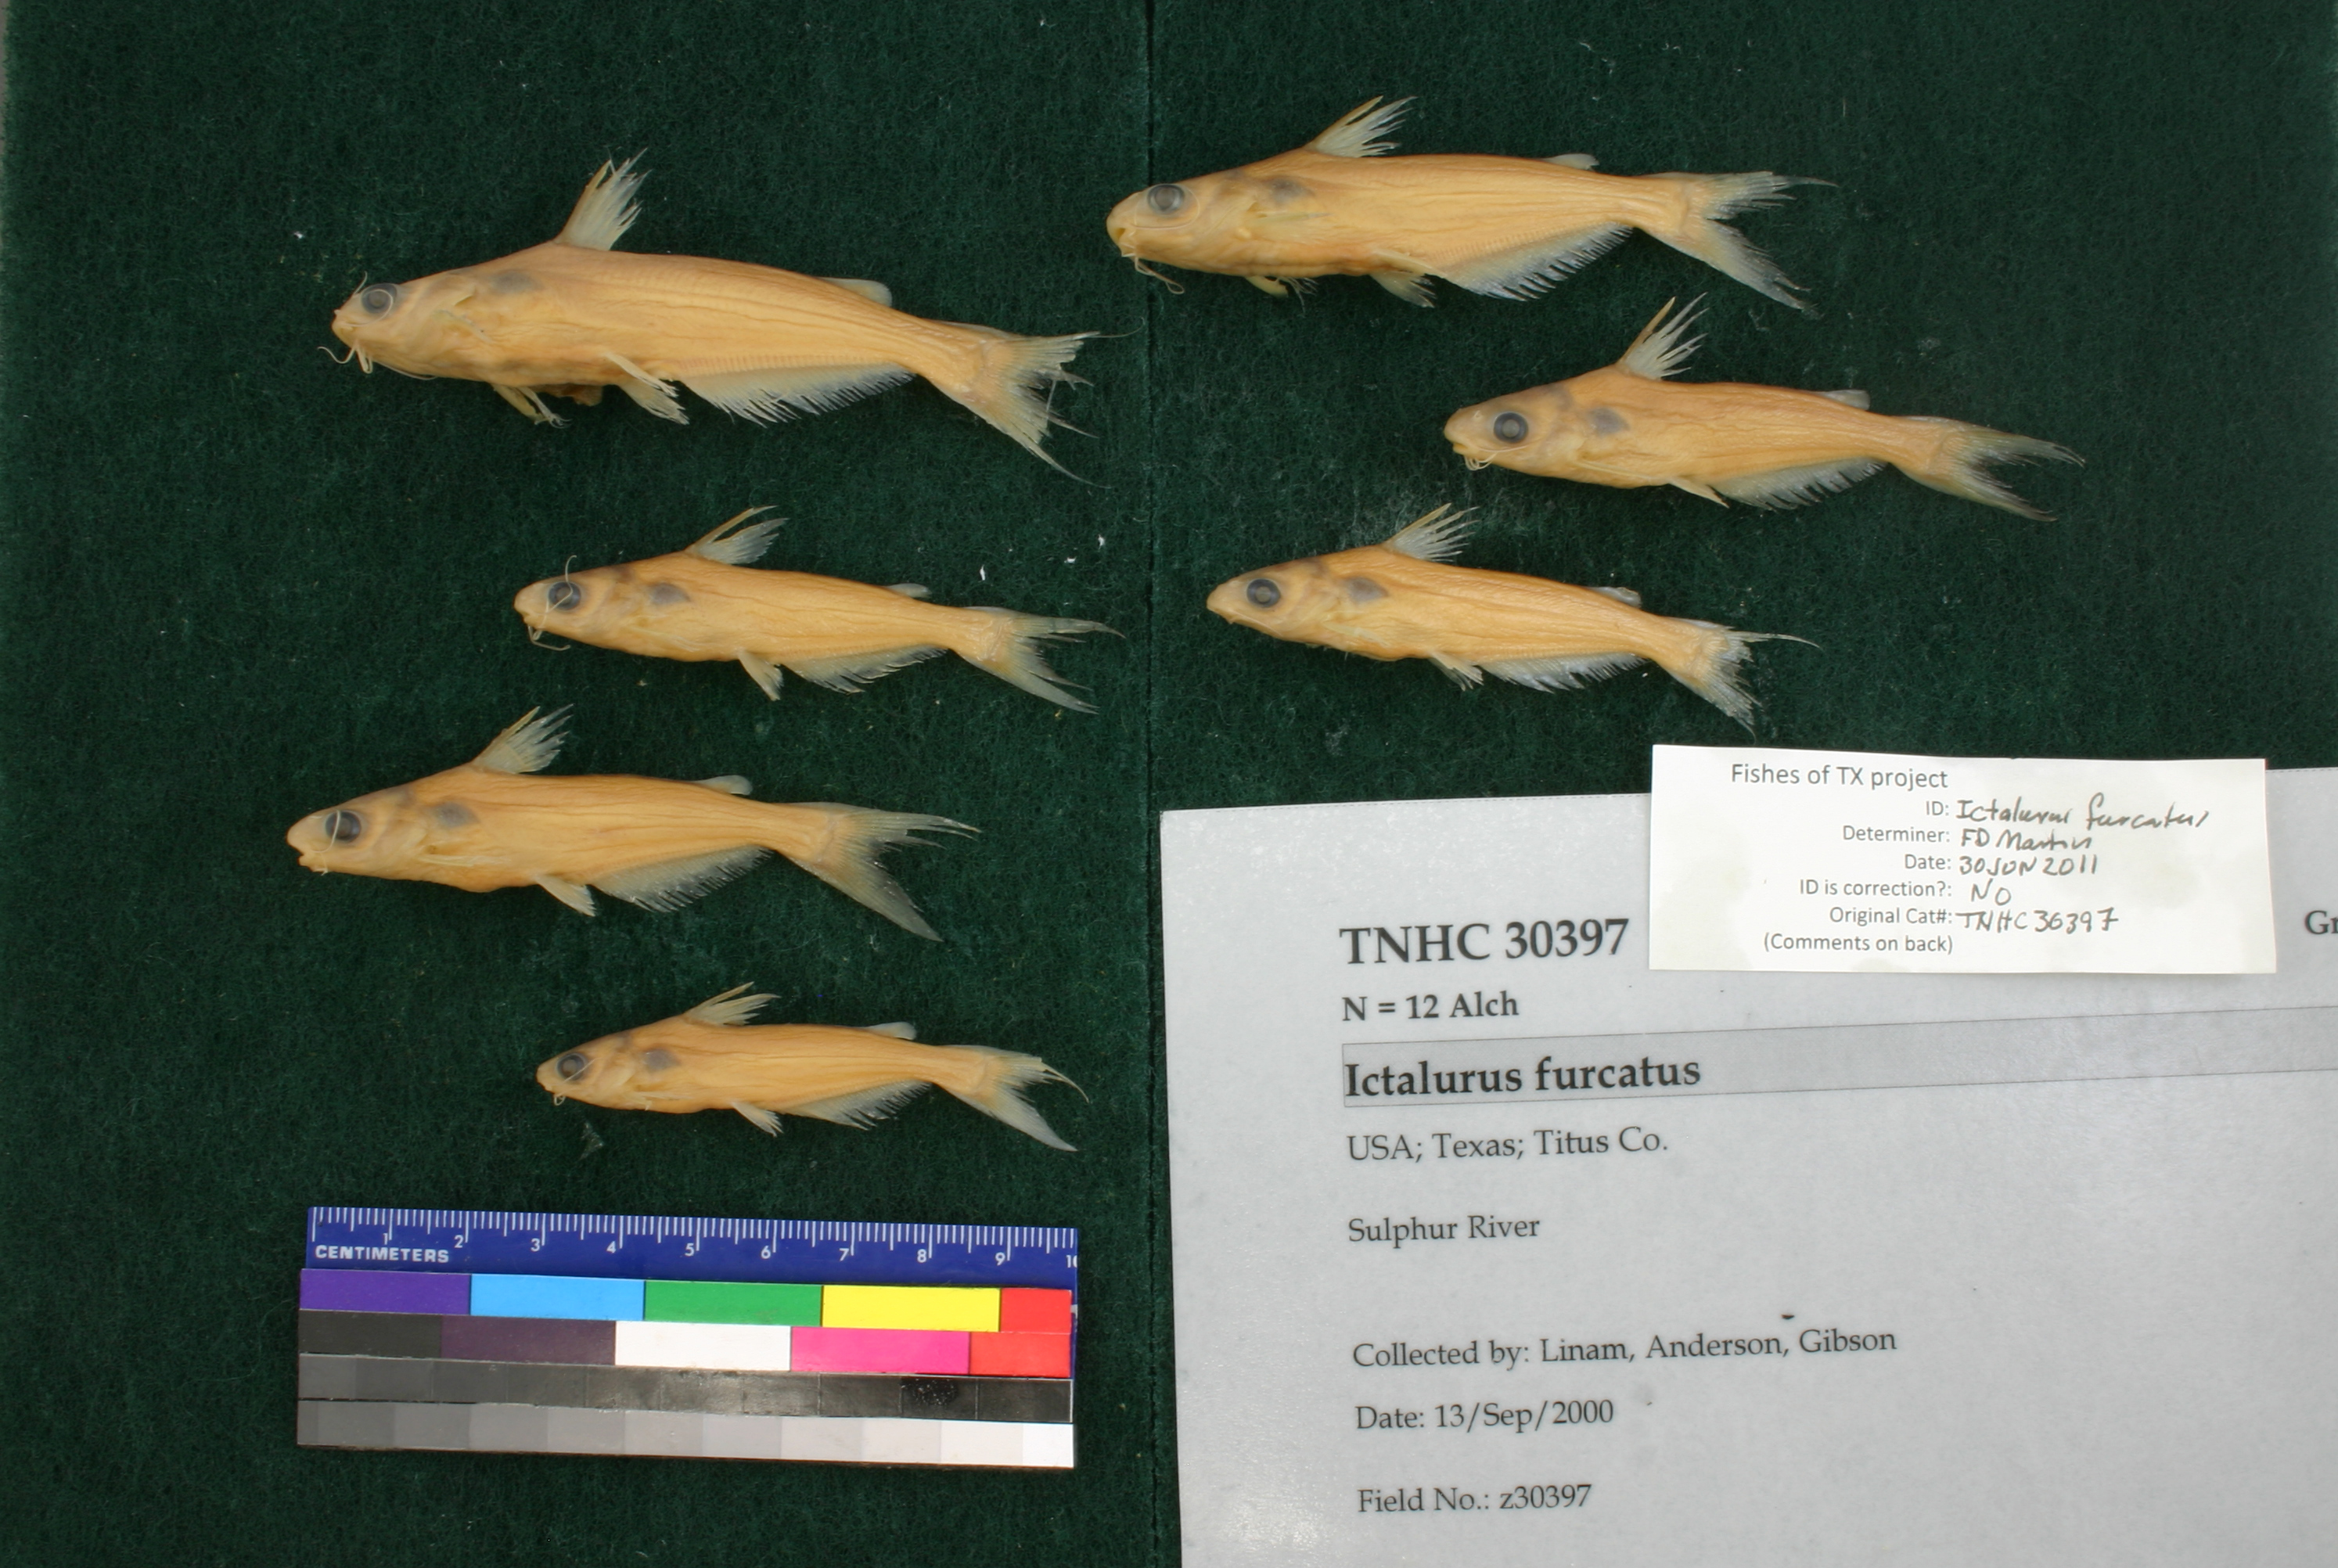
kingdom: Animalia
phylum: Chordata
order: Siluriformes
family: Ictaluridae
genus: Ictalurus
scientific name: Ictalurus furcatus
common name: Blue catfish
